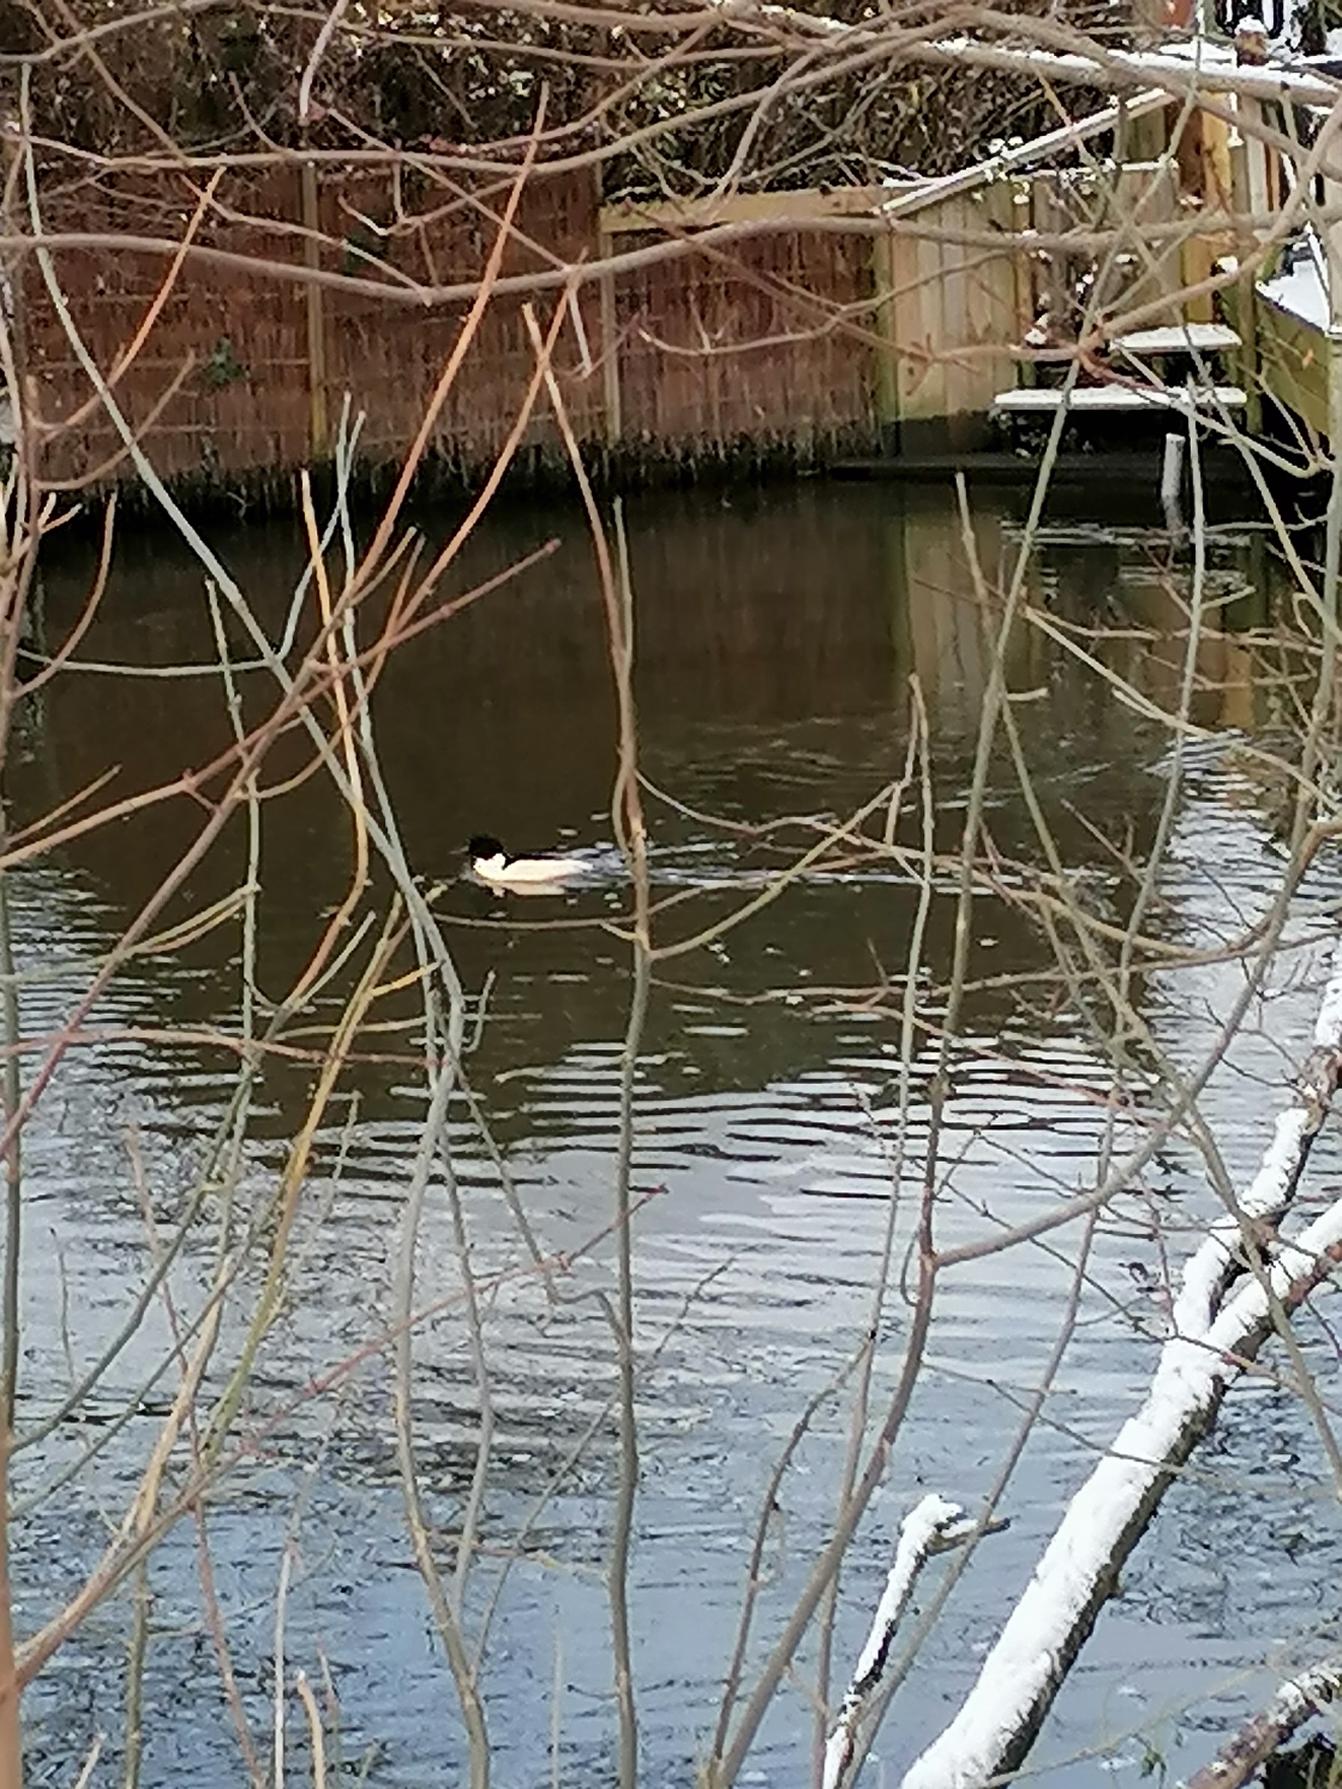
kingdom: Animalia
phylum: Chordata
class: Aves
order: Anseriformes
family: Anatidae
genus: Mergus
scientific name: Mergus merganser
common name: Stor skallesluger
